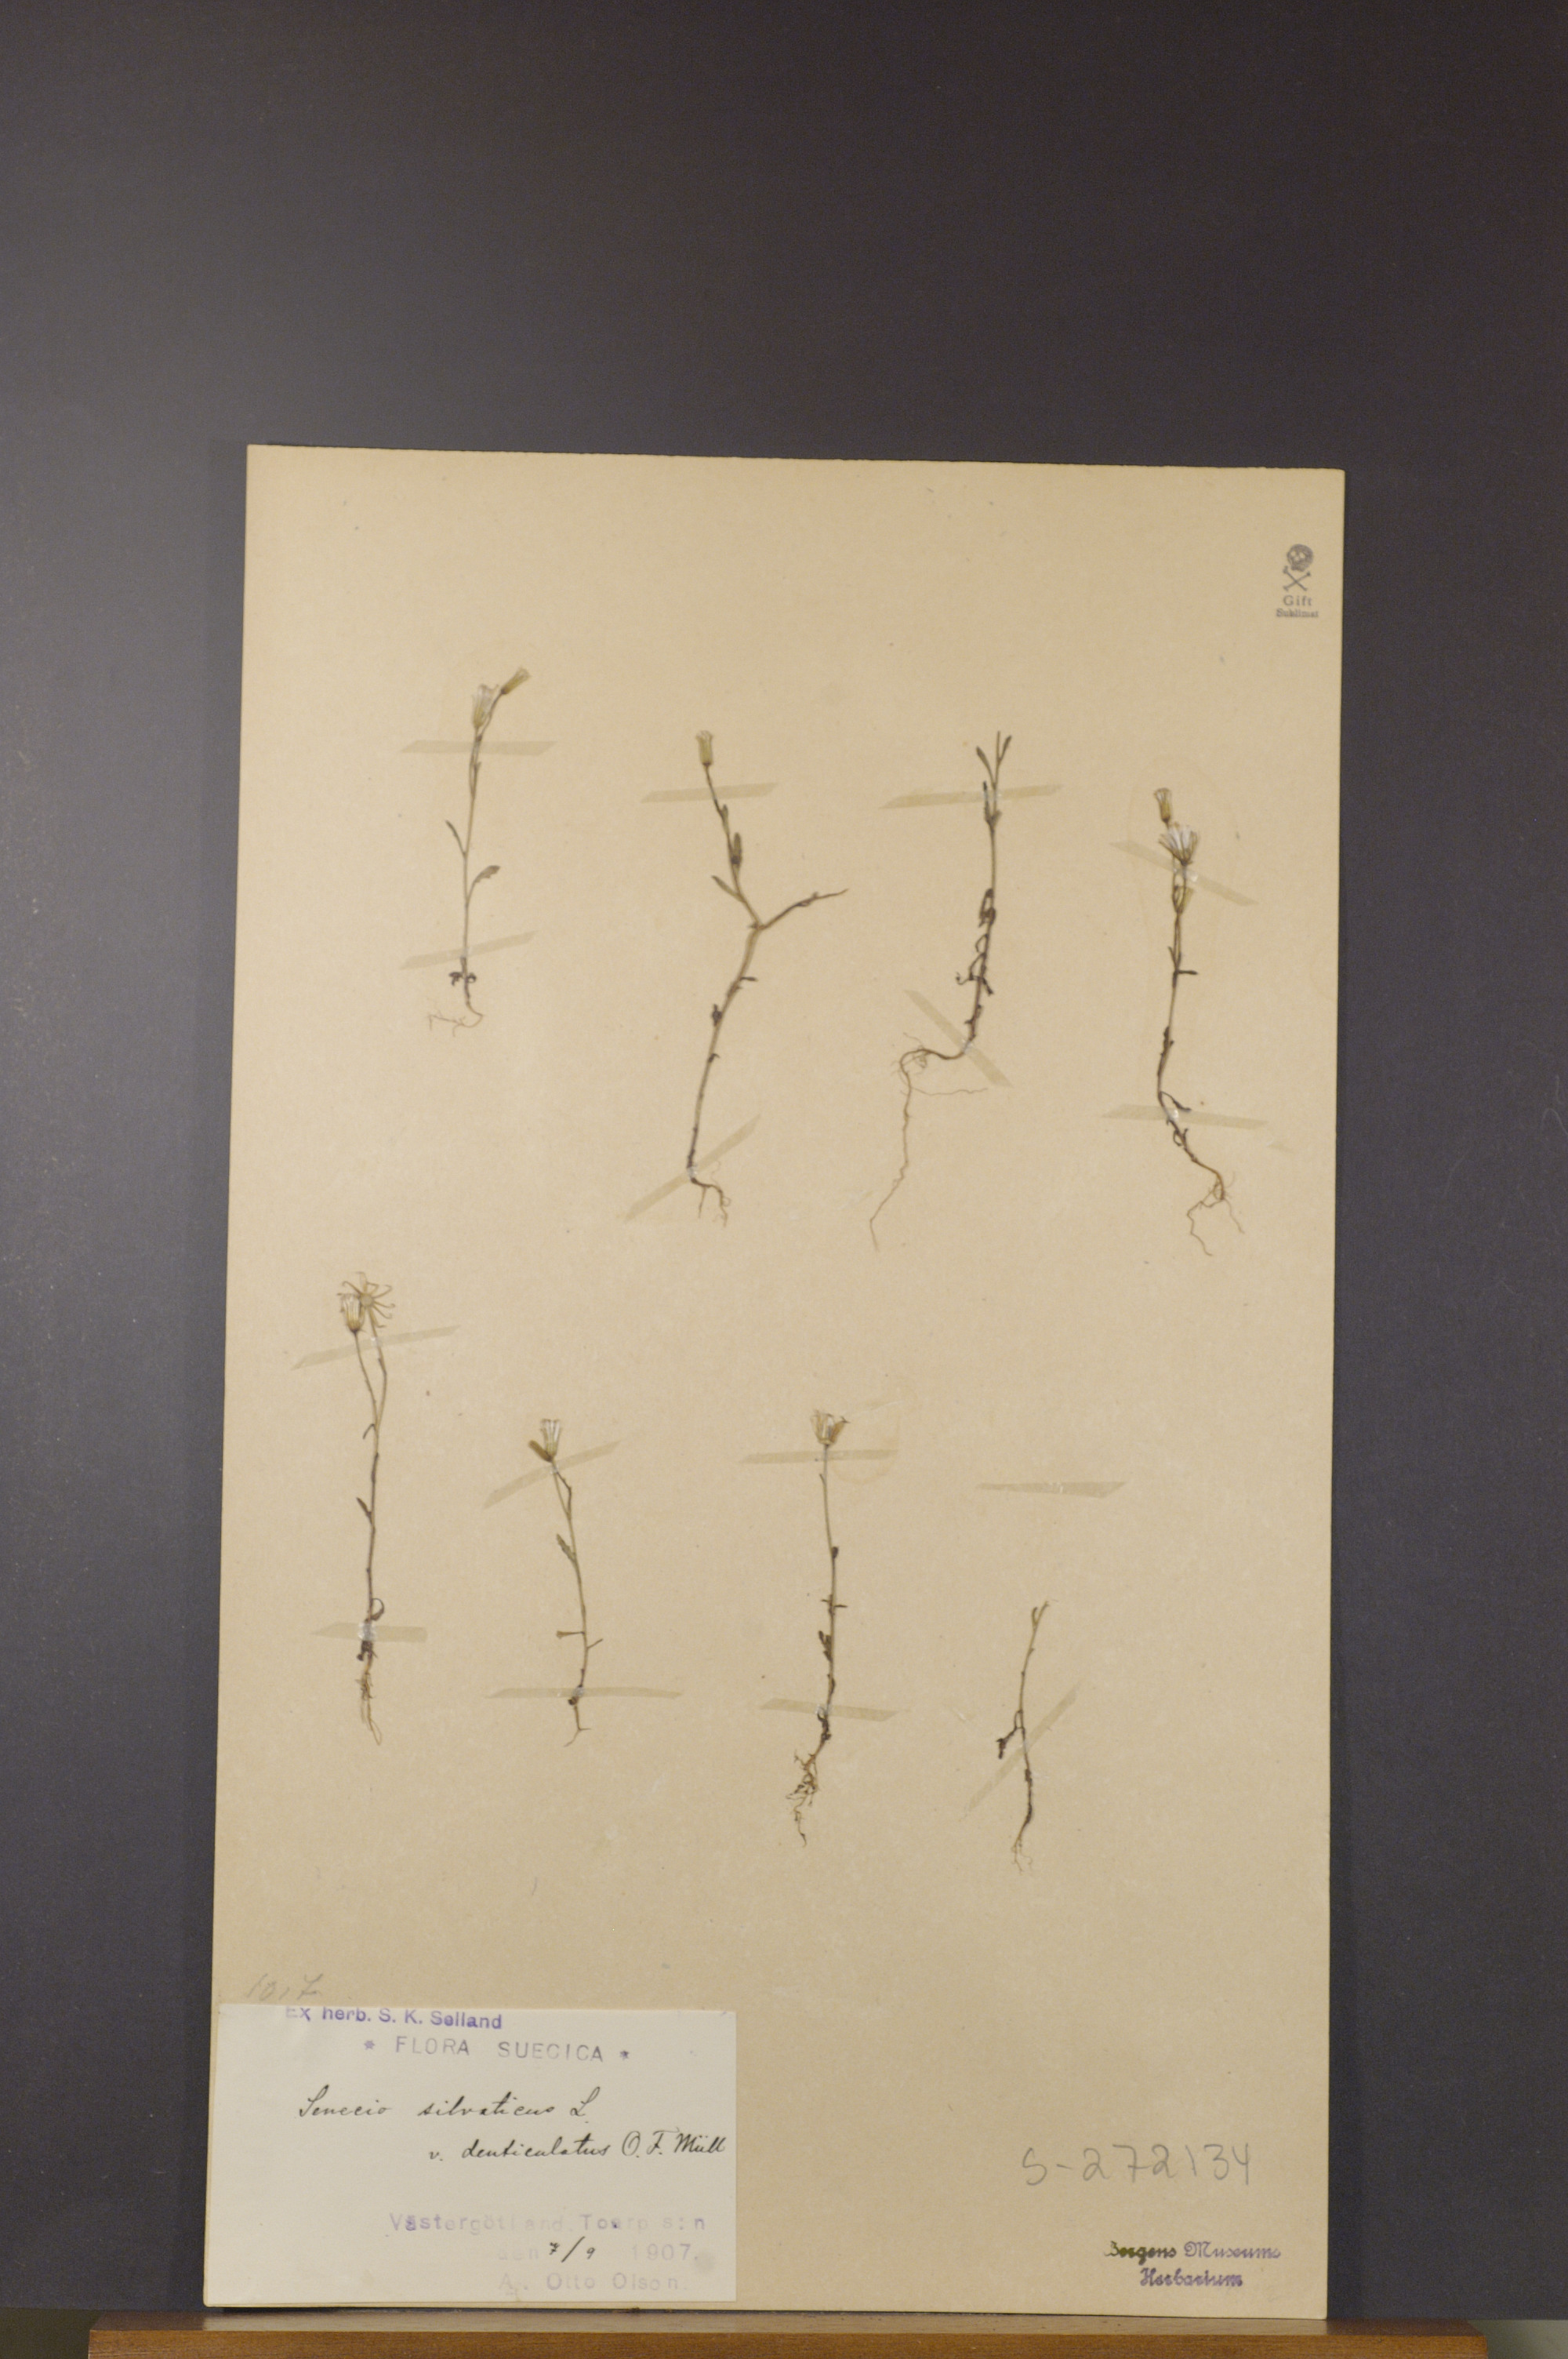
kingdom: Plantae
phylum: Tracheophyta
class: Magnoliopsida
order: Asterales
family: Asteraceae
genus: Senecio
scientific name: Senecio sylvaticus
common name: Woodland ragwort
